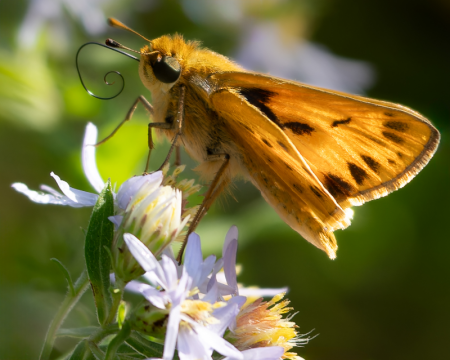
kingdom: Animalia
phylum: Arthropoda
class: Insecta
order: Lepidoptera
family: Hesperiidae
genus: Hylephila
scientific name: Hylephila phyleus
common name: Fiery Skipper
